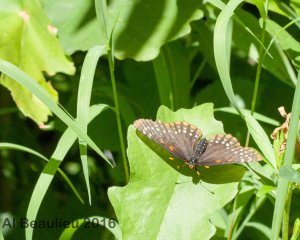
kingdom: Animalia
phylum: Arthropoda
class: Insecta
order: Lepidoptera
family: Nymphalidae
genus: Euphydryas
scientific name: Euphydryas phaeton
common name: Baltimore Checkerspot
